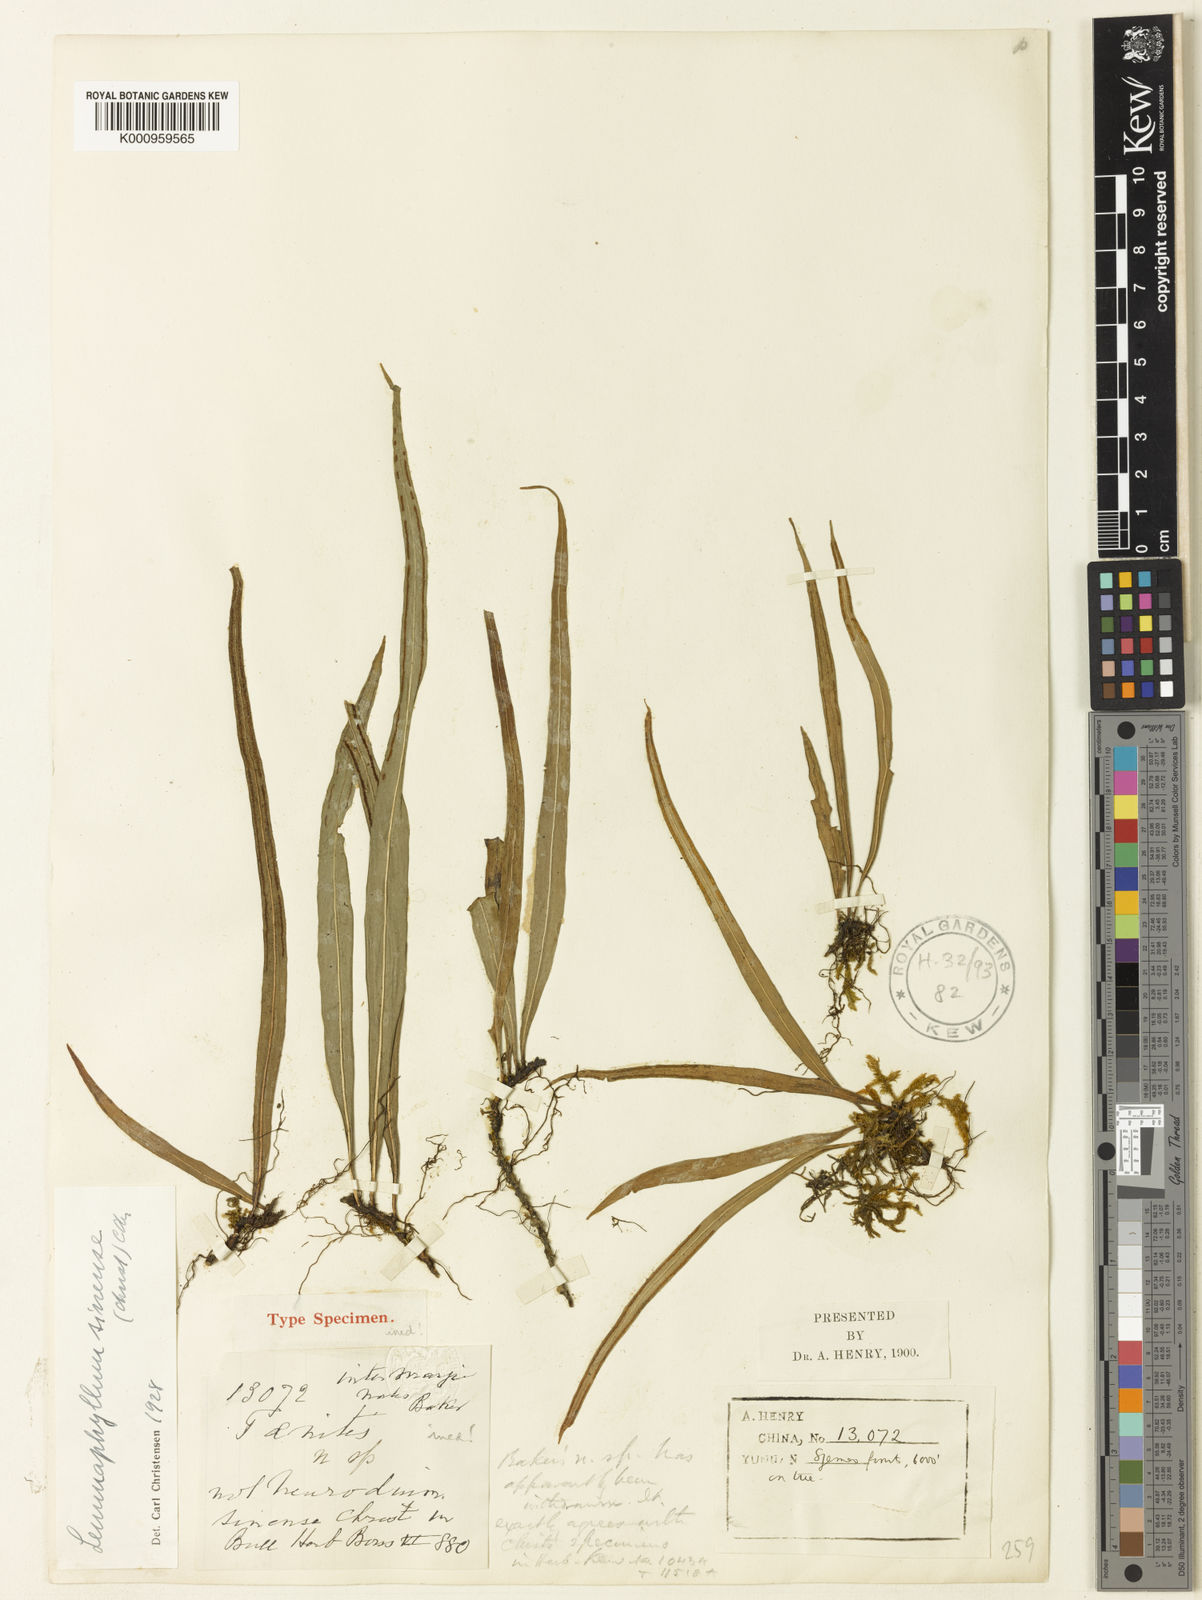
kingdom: Plantae
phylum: Tracheophyta
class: Polypodiopsida
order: Polypodiales
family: Polypodiaceae
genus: Lepisorus
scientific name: Lepisorus sinensis
